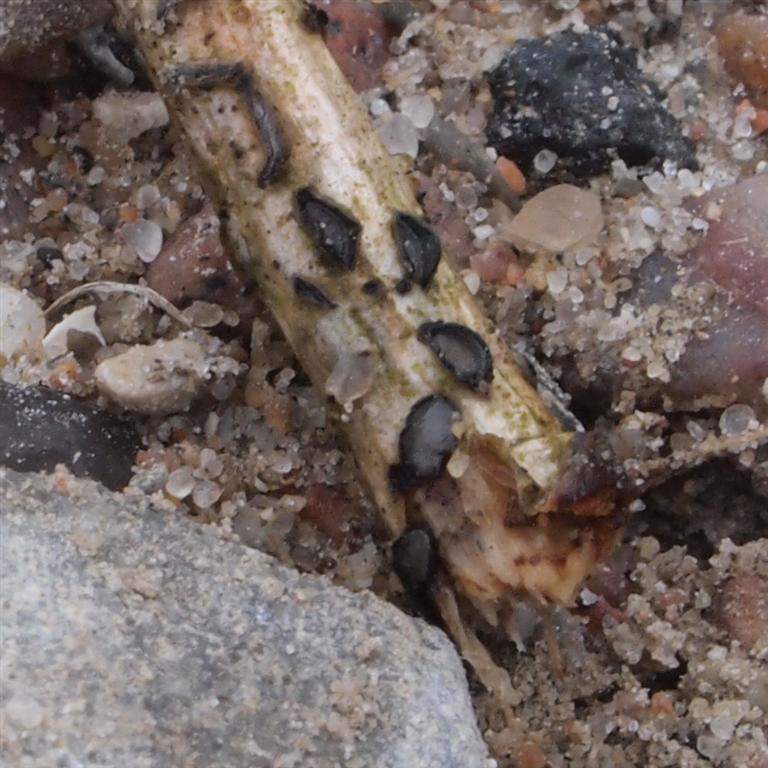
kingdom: Fungi
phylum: Ascomycota
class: Leotiomycetes
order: Rhytismatales
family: Rhytismataceae
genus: Colpoma
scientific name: Colpoma quercinum
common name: ege-sprækkeskive
